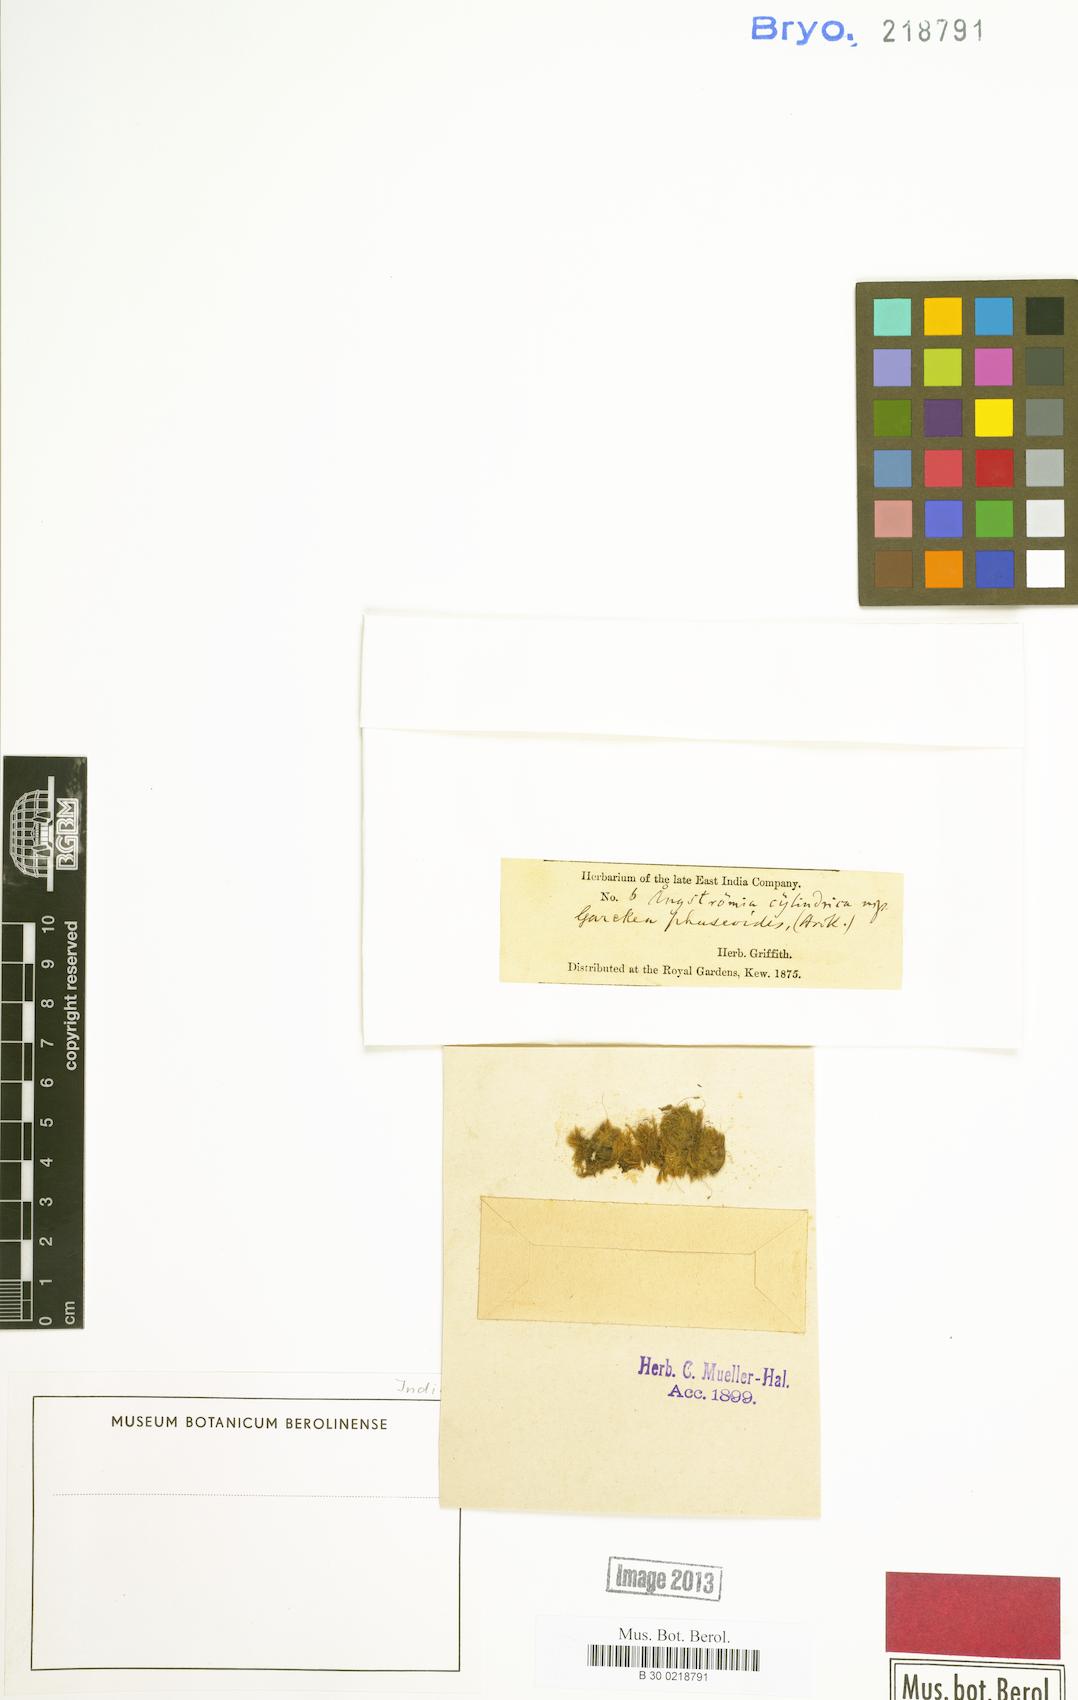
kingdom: Plantae
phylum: Bryophyta
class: Bryopsida
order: Dicranales
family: Dicranellaceae
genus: Dicranella
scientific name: Dicranella coarctata
